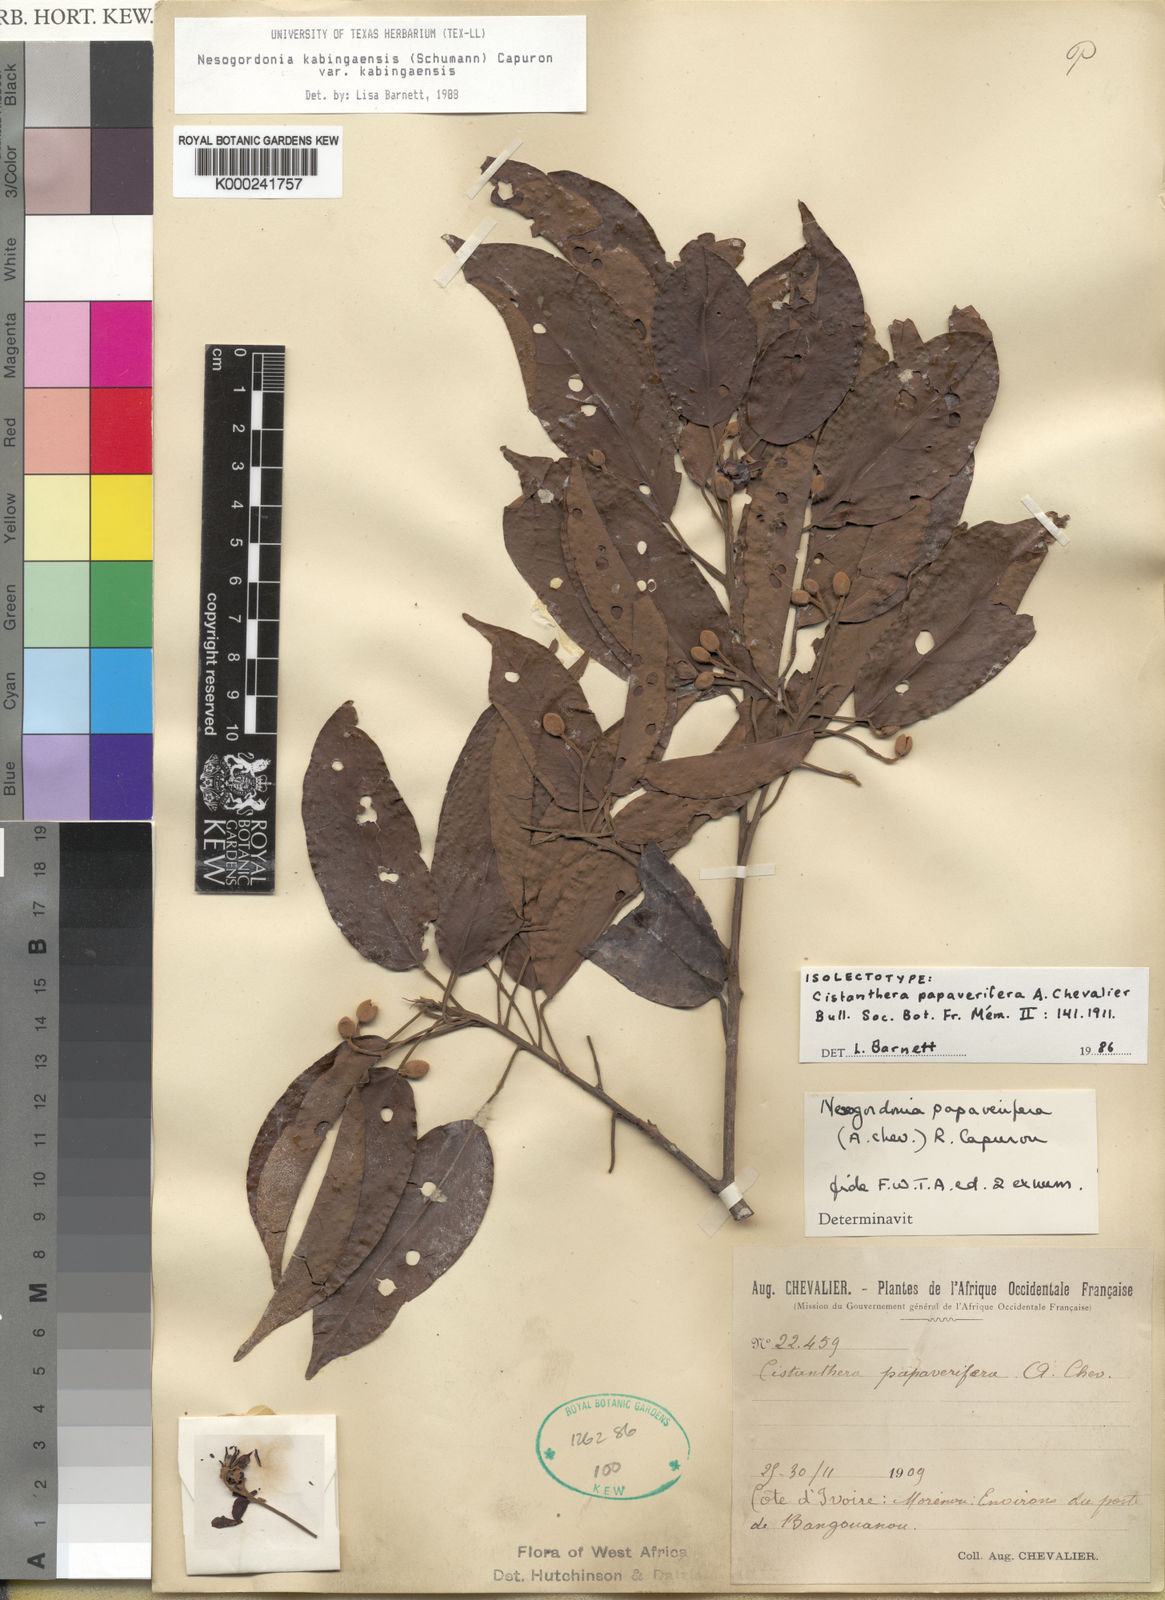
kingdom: Plantae
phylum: Tracheophyta
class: Magnoliopsida
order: Malvales
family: Malvaceae
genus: Nesogordonia
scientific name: Nesogordonia
